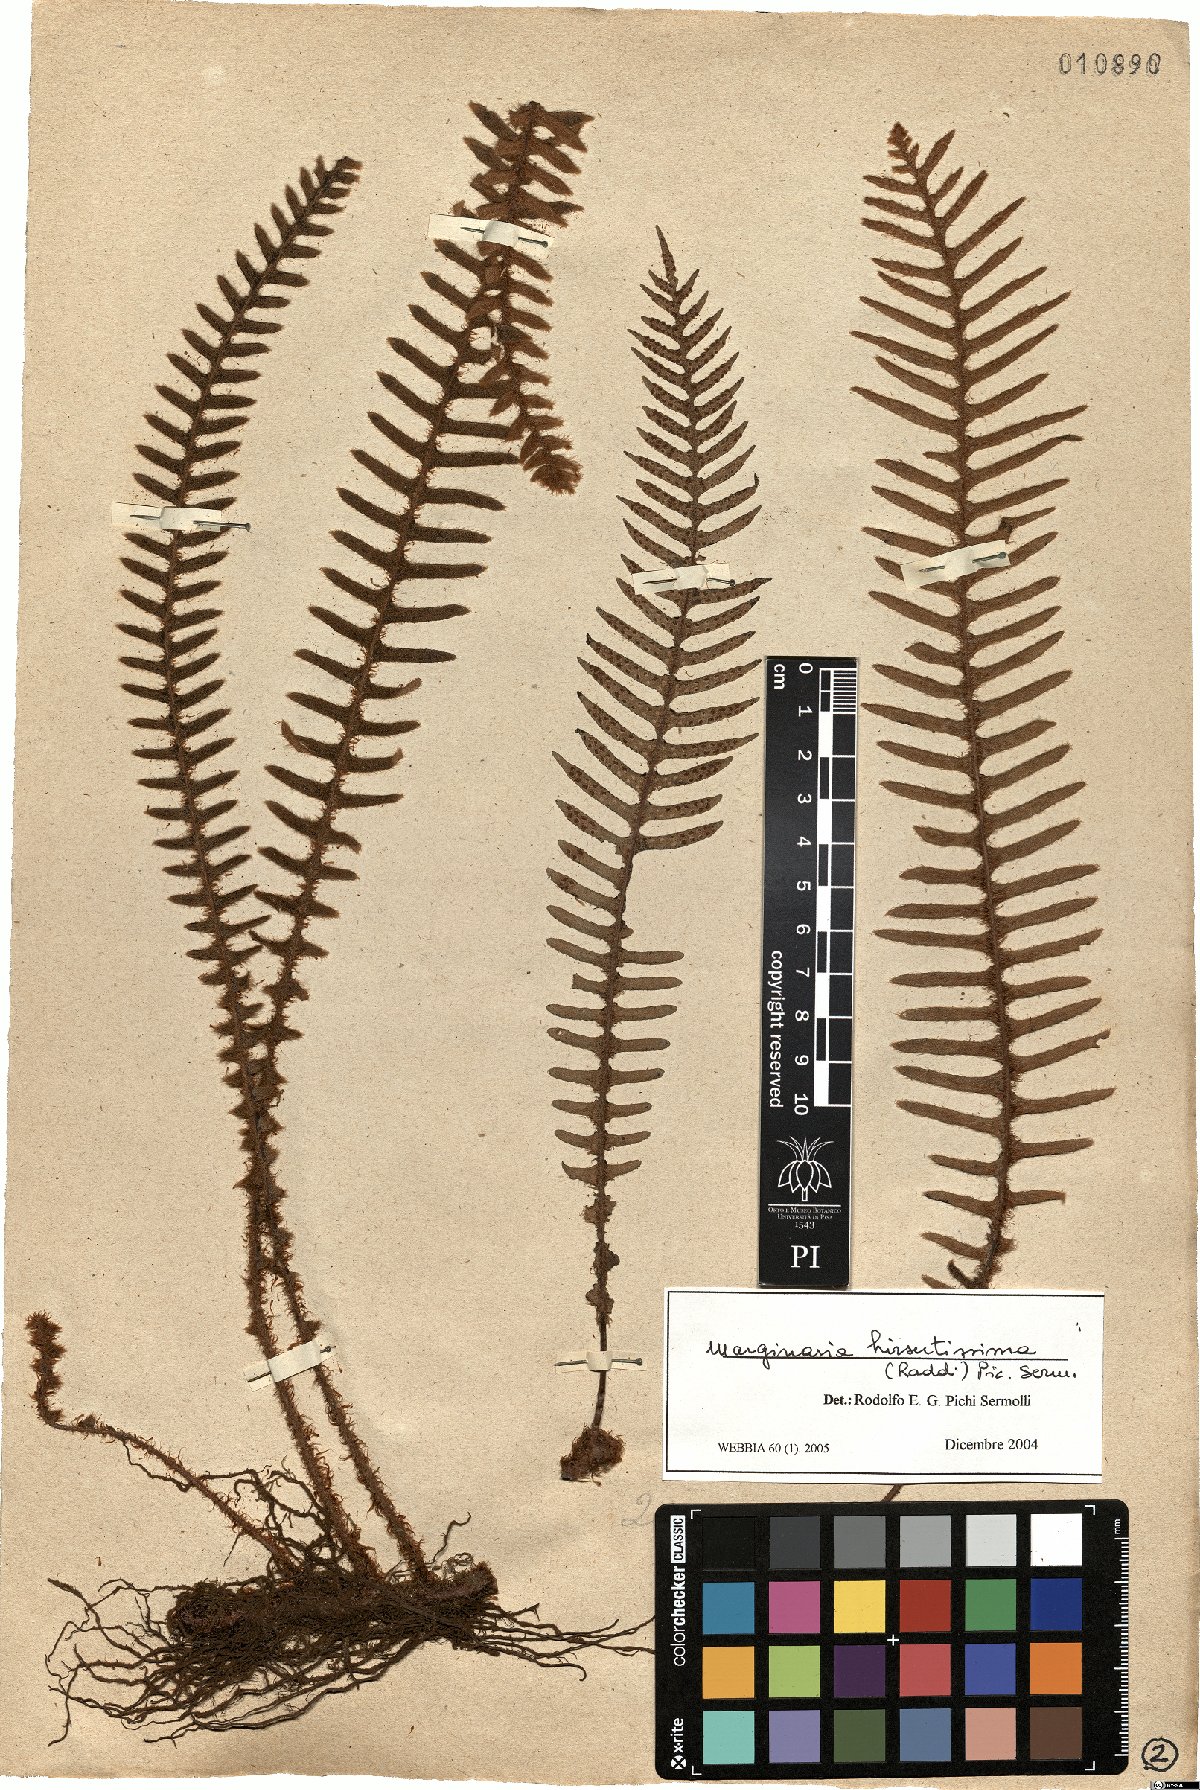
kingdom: Plantae
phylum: Tracheophyta
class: Polypodiopsida
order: Polypodiales
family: Polypodiaceae
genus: Pleopeltis
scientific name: Pleopeltis hirsutissima
